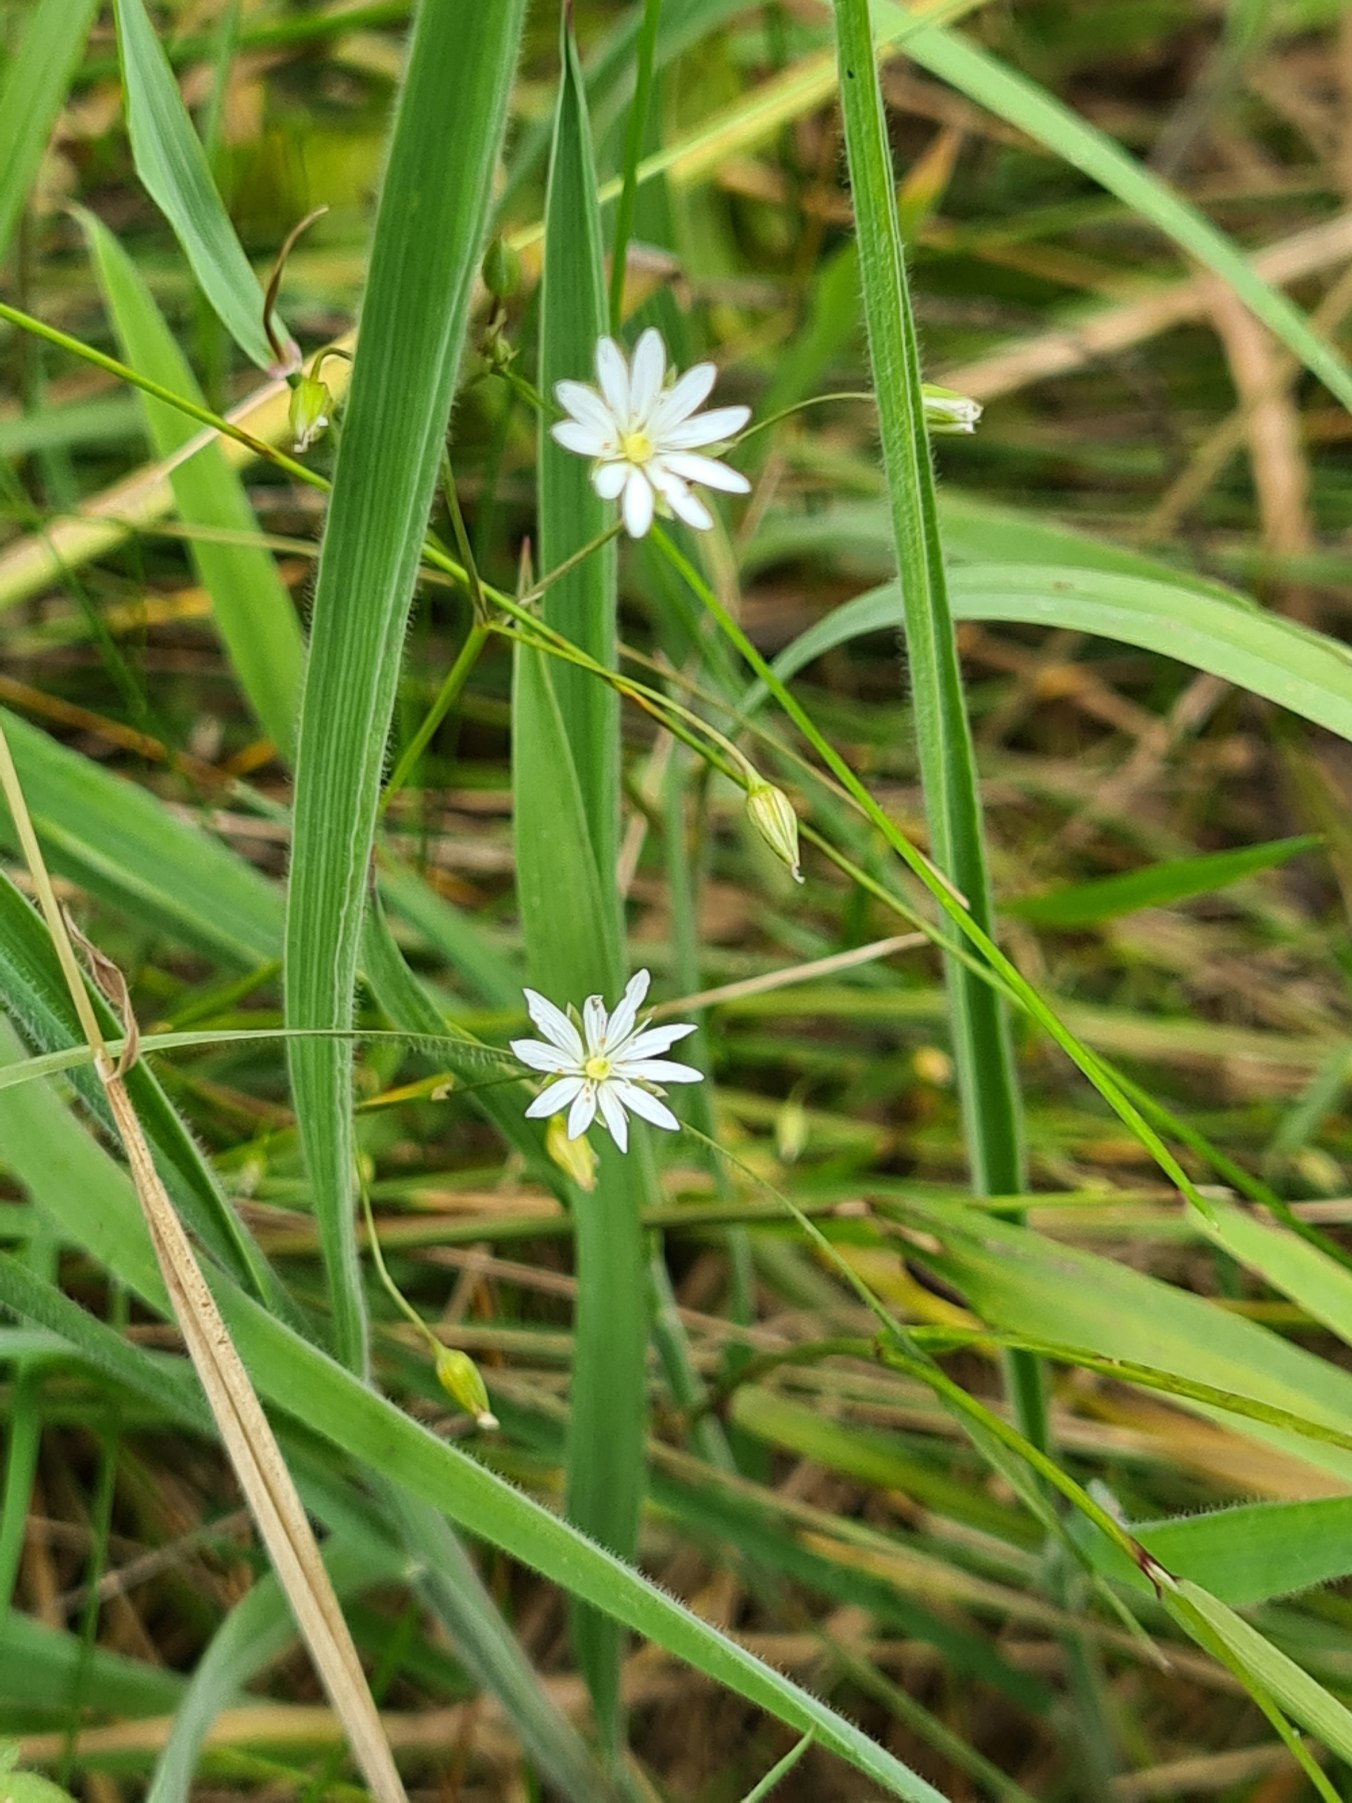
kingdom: Plantae
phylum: Tracheophyta
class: Magnoliopsida
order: Caryophyllales
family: Caryophyllaceae
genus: Stellaria
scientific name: Stellaria graminea
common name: Græsbladet fladstjerne
